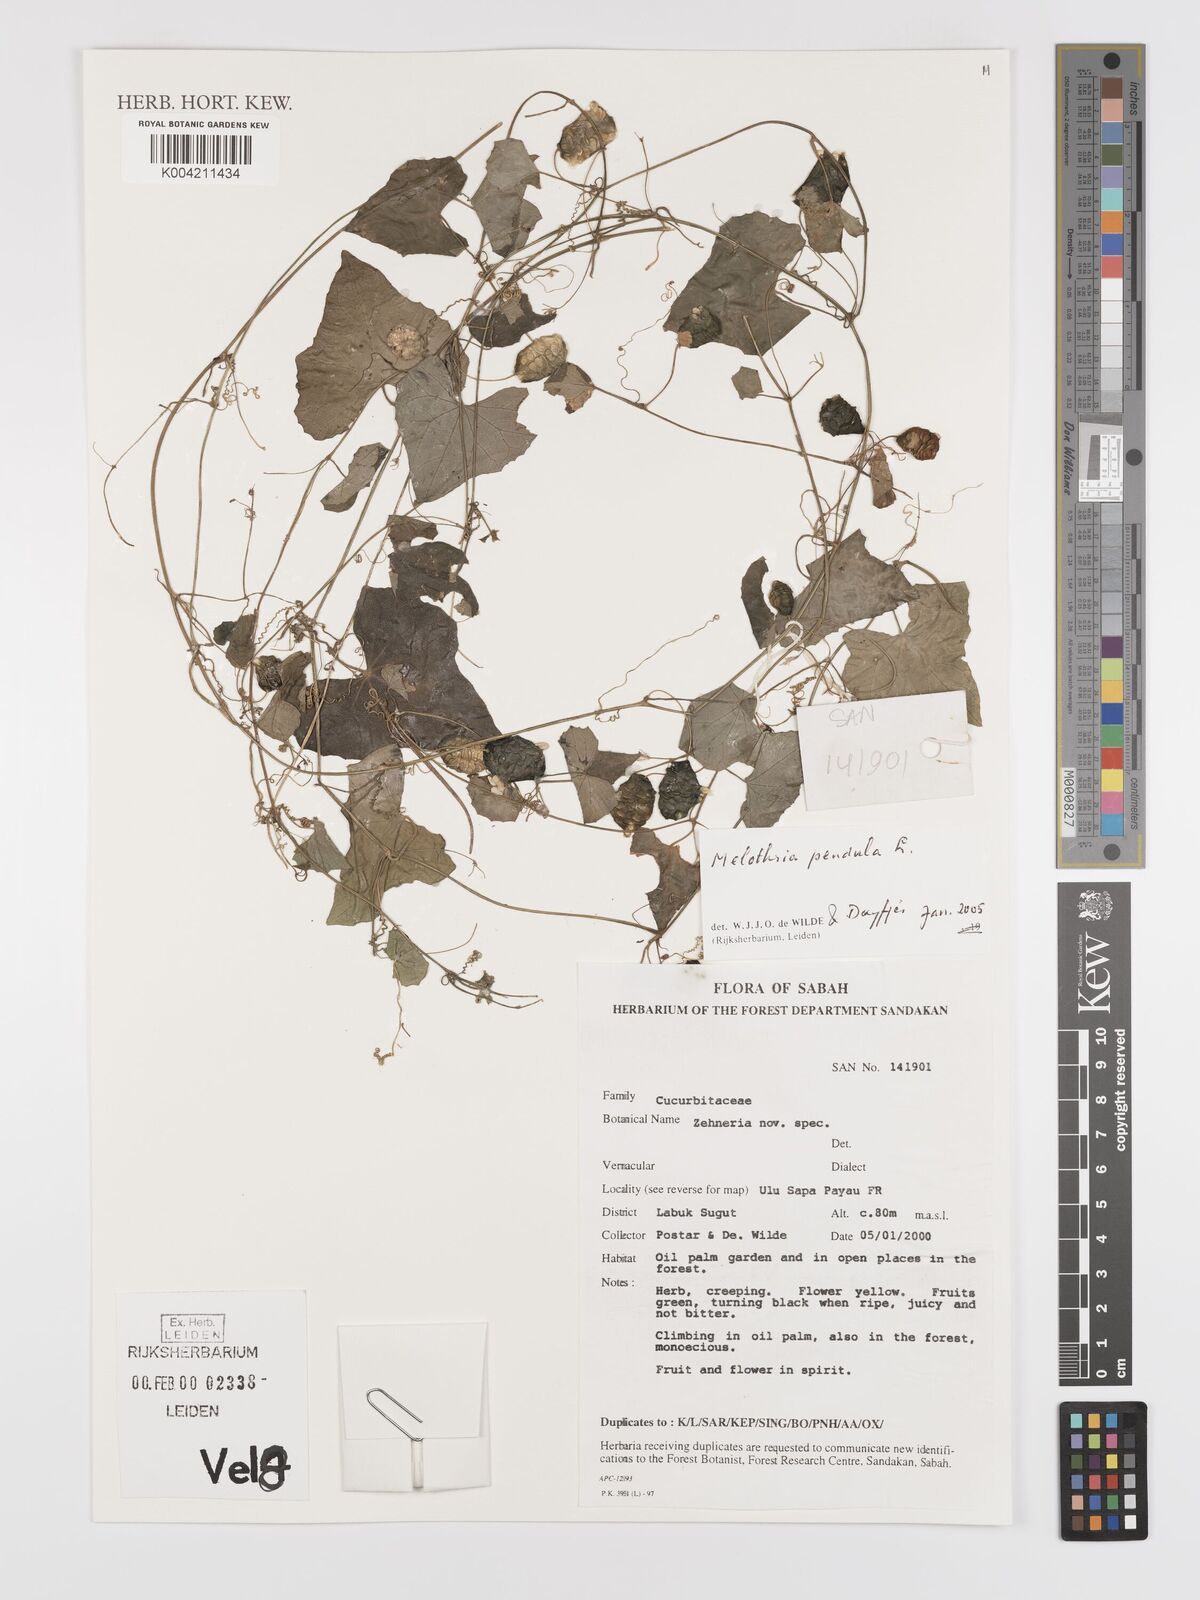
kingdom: Plantae
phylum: Tracheophyta
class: Magnoliopsida
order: Cucurbitales
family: Cucurbitaceae
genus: Melothria
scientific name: Melothria pendula
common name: Creeping-cucumber
